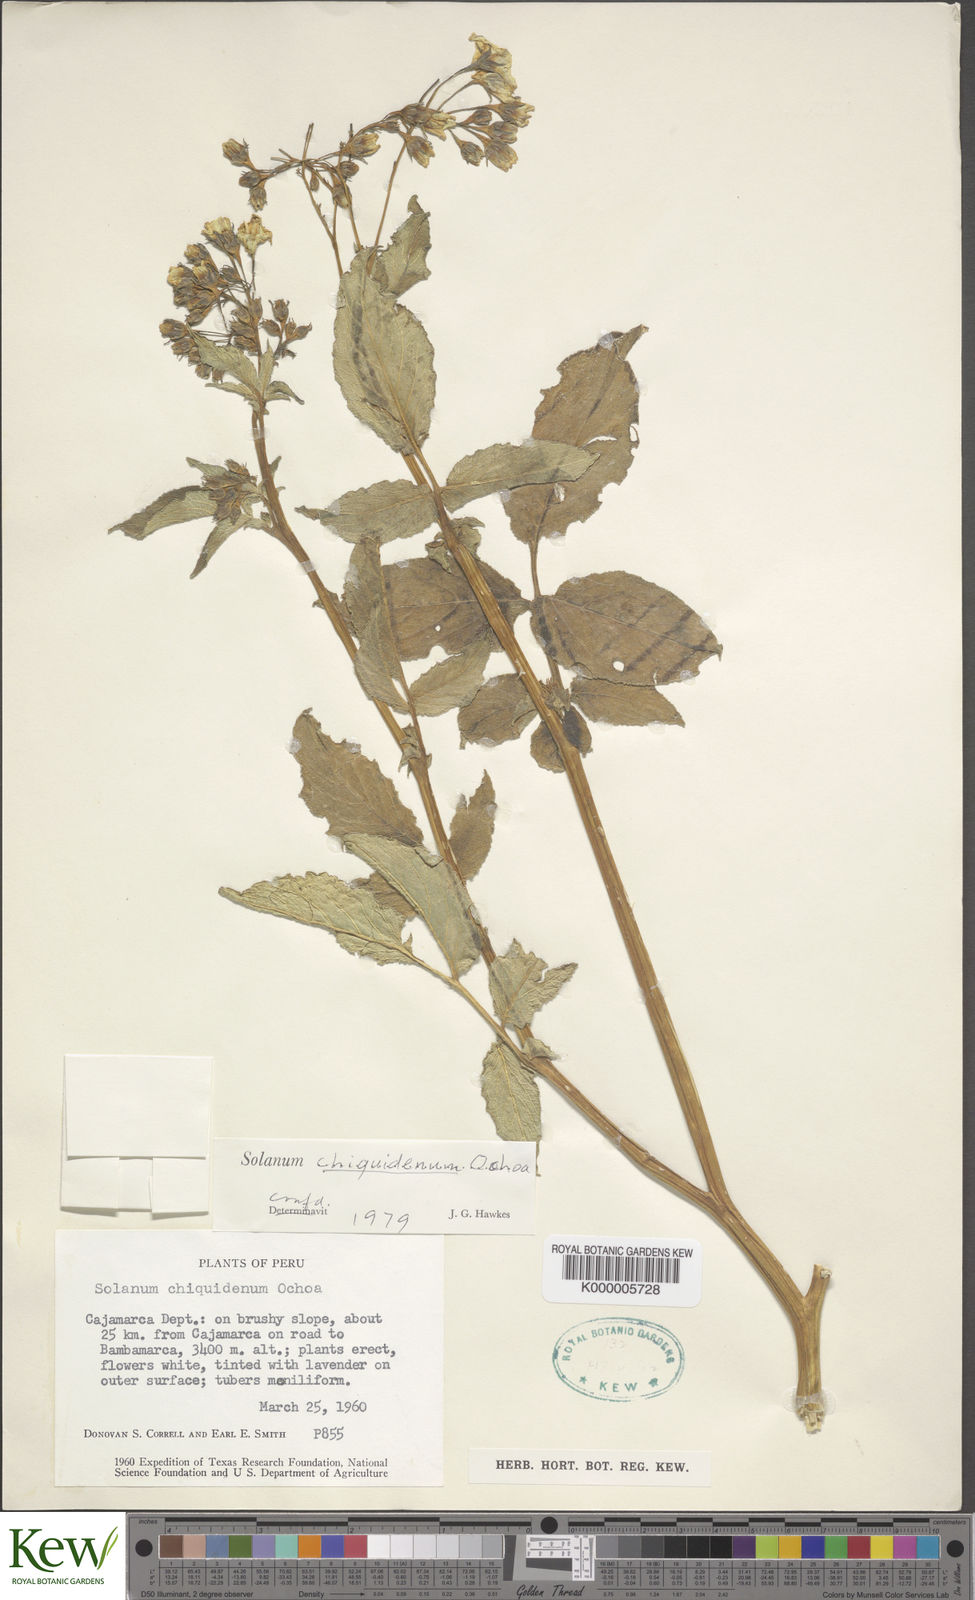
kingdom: Plantae
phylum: Tracheophyta
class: Magnoliopsida
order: Solanales
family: Solanaceae
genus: Solanum
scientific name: Solanum chiquidenum
